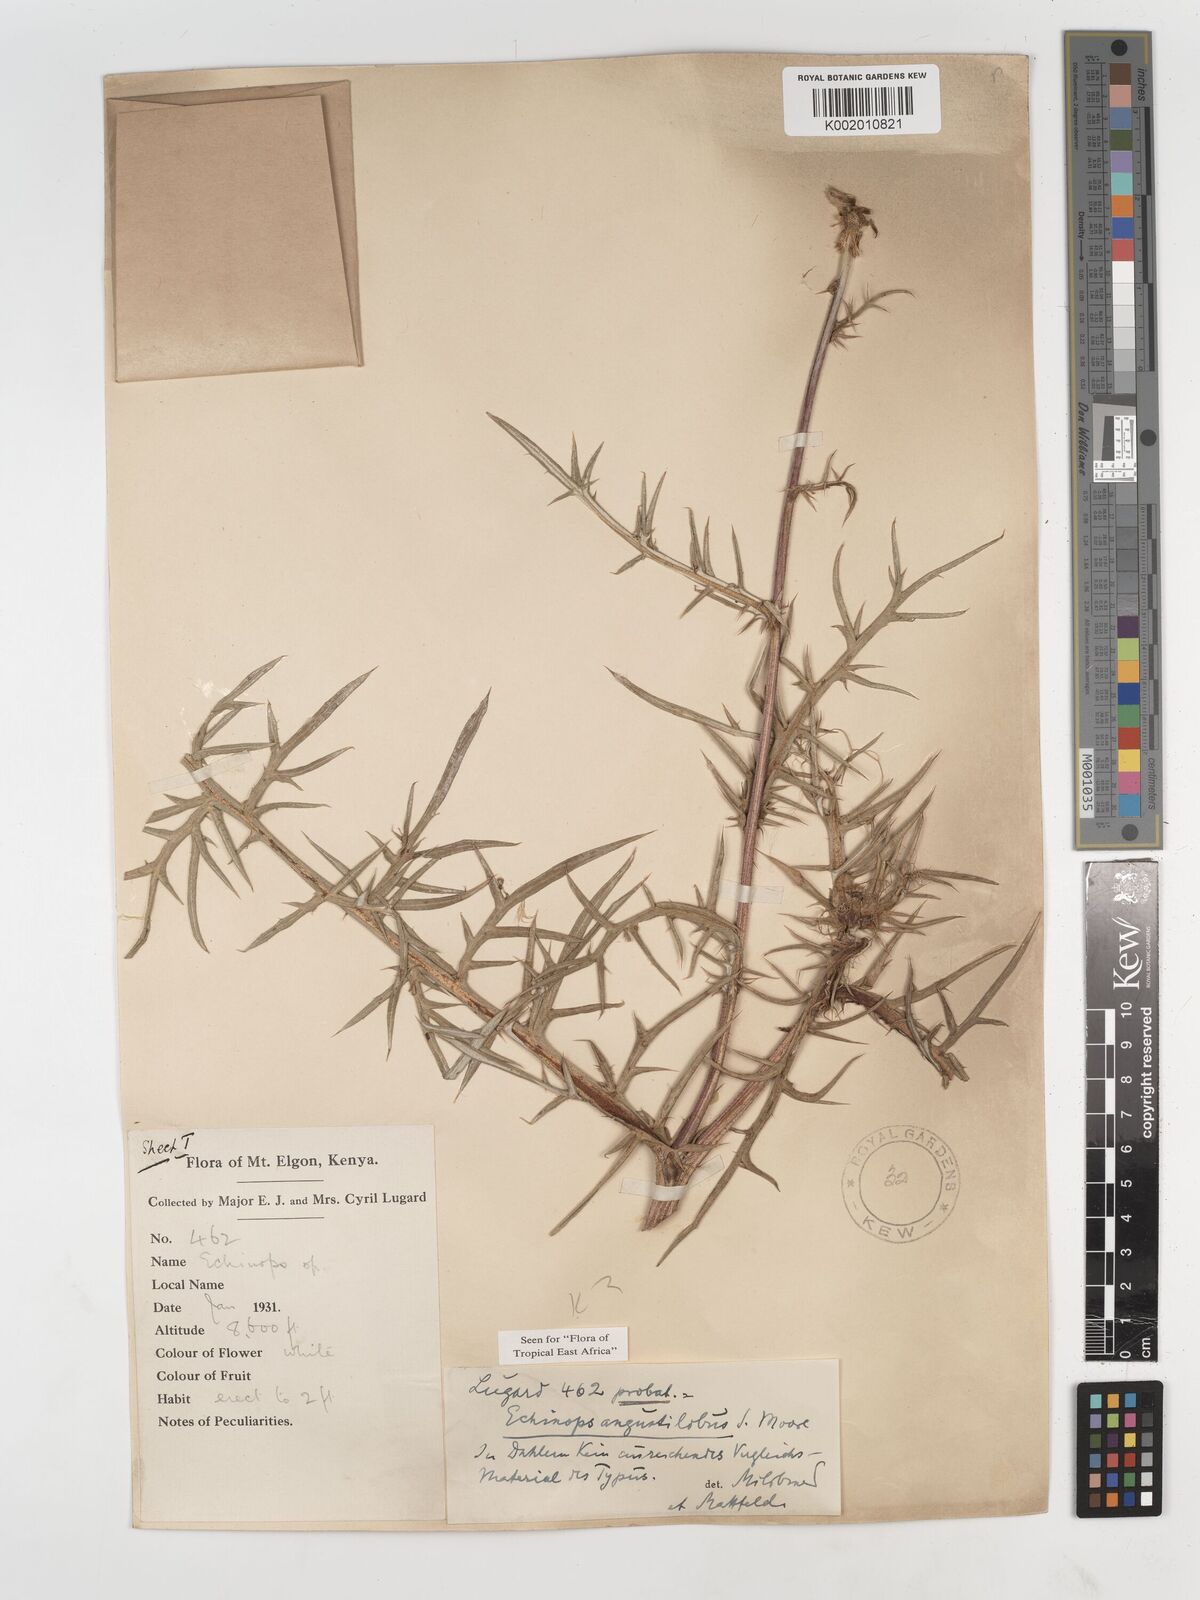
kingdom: Plantae
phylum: Tracheophyta
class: Magnoliopsida
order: Asterales
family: Asteraceae
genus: Echinops
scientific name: Echinops angustilobus
